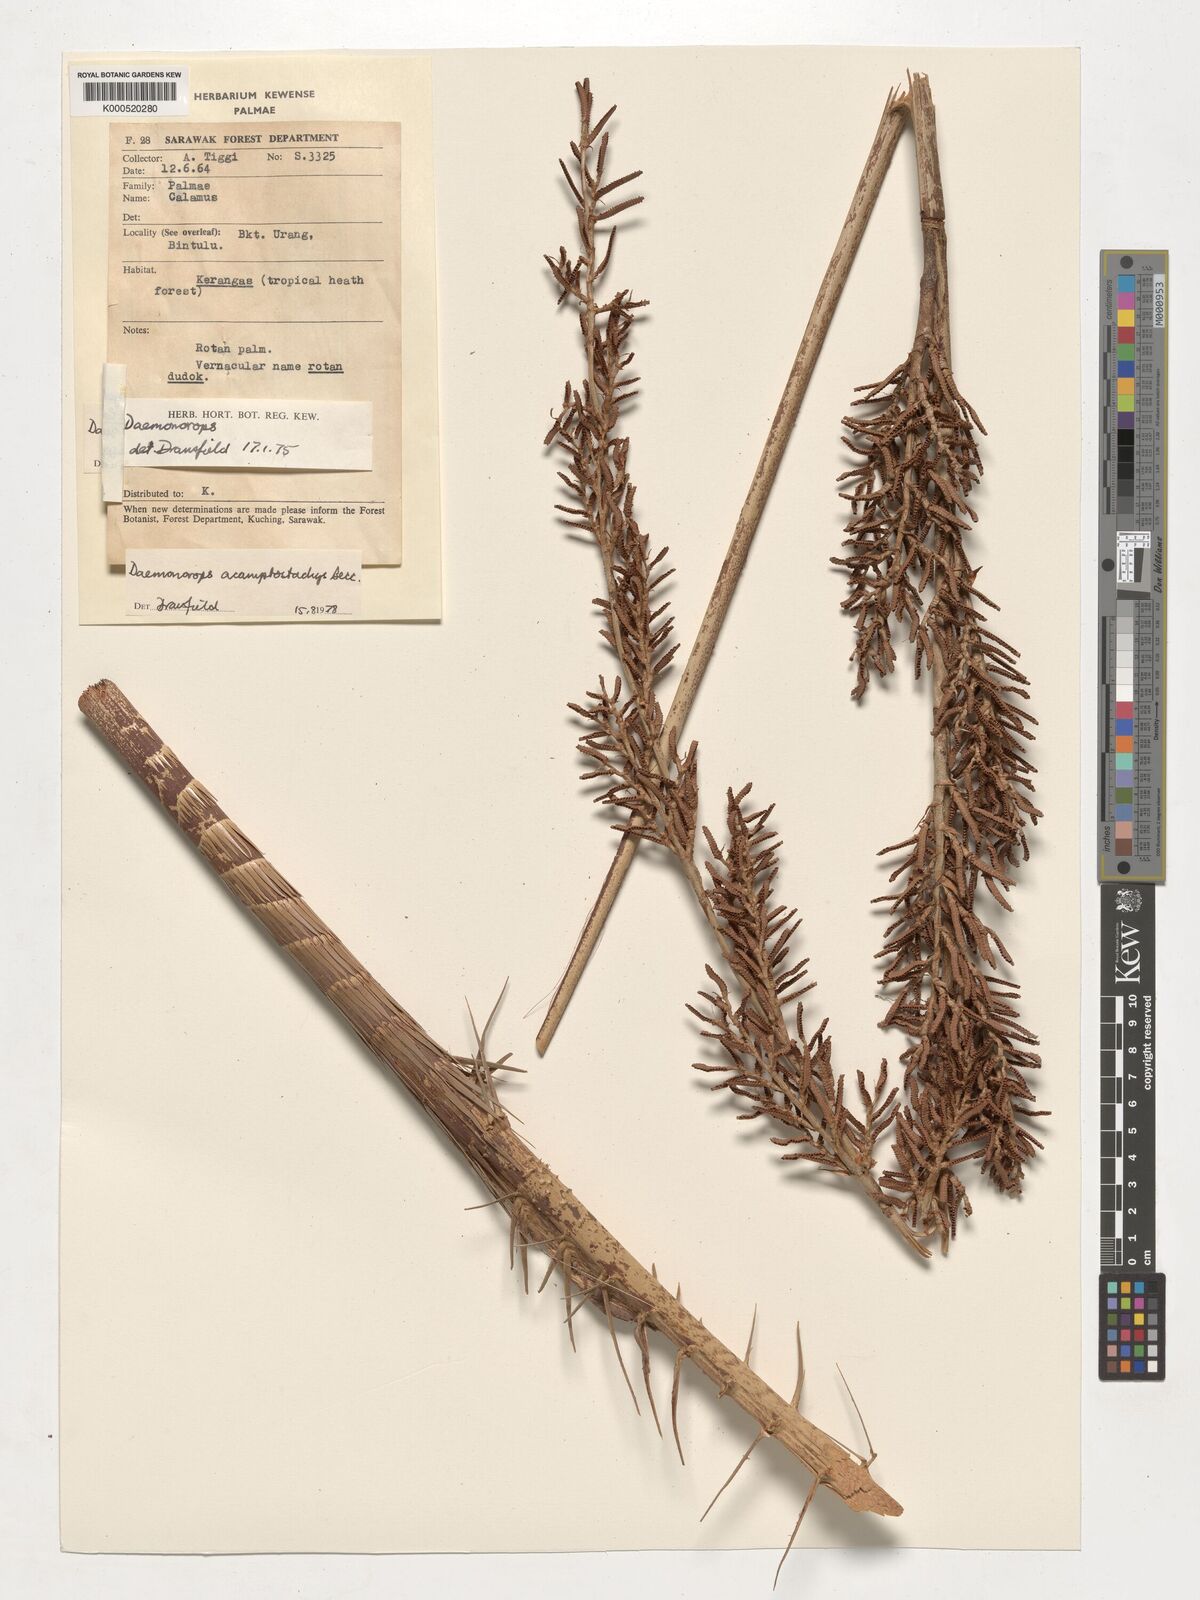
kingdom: Plantae
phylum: Tracheophyta
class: Liliopsida
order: Arecales
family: Arecaceae
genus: Calamus
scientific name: Calamus acamptostachys
